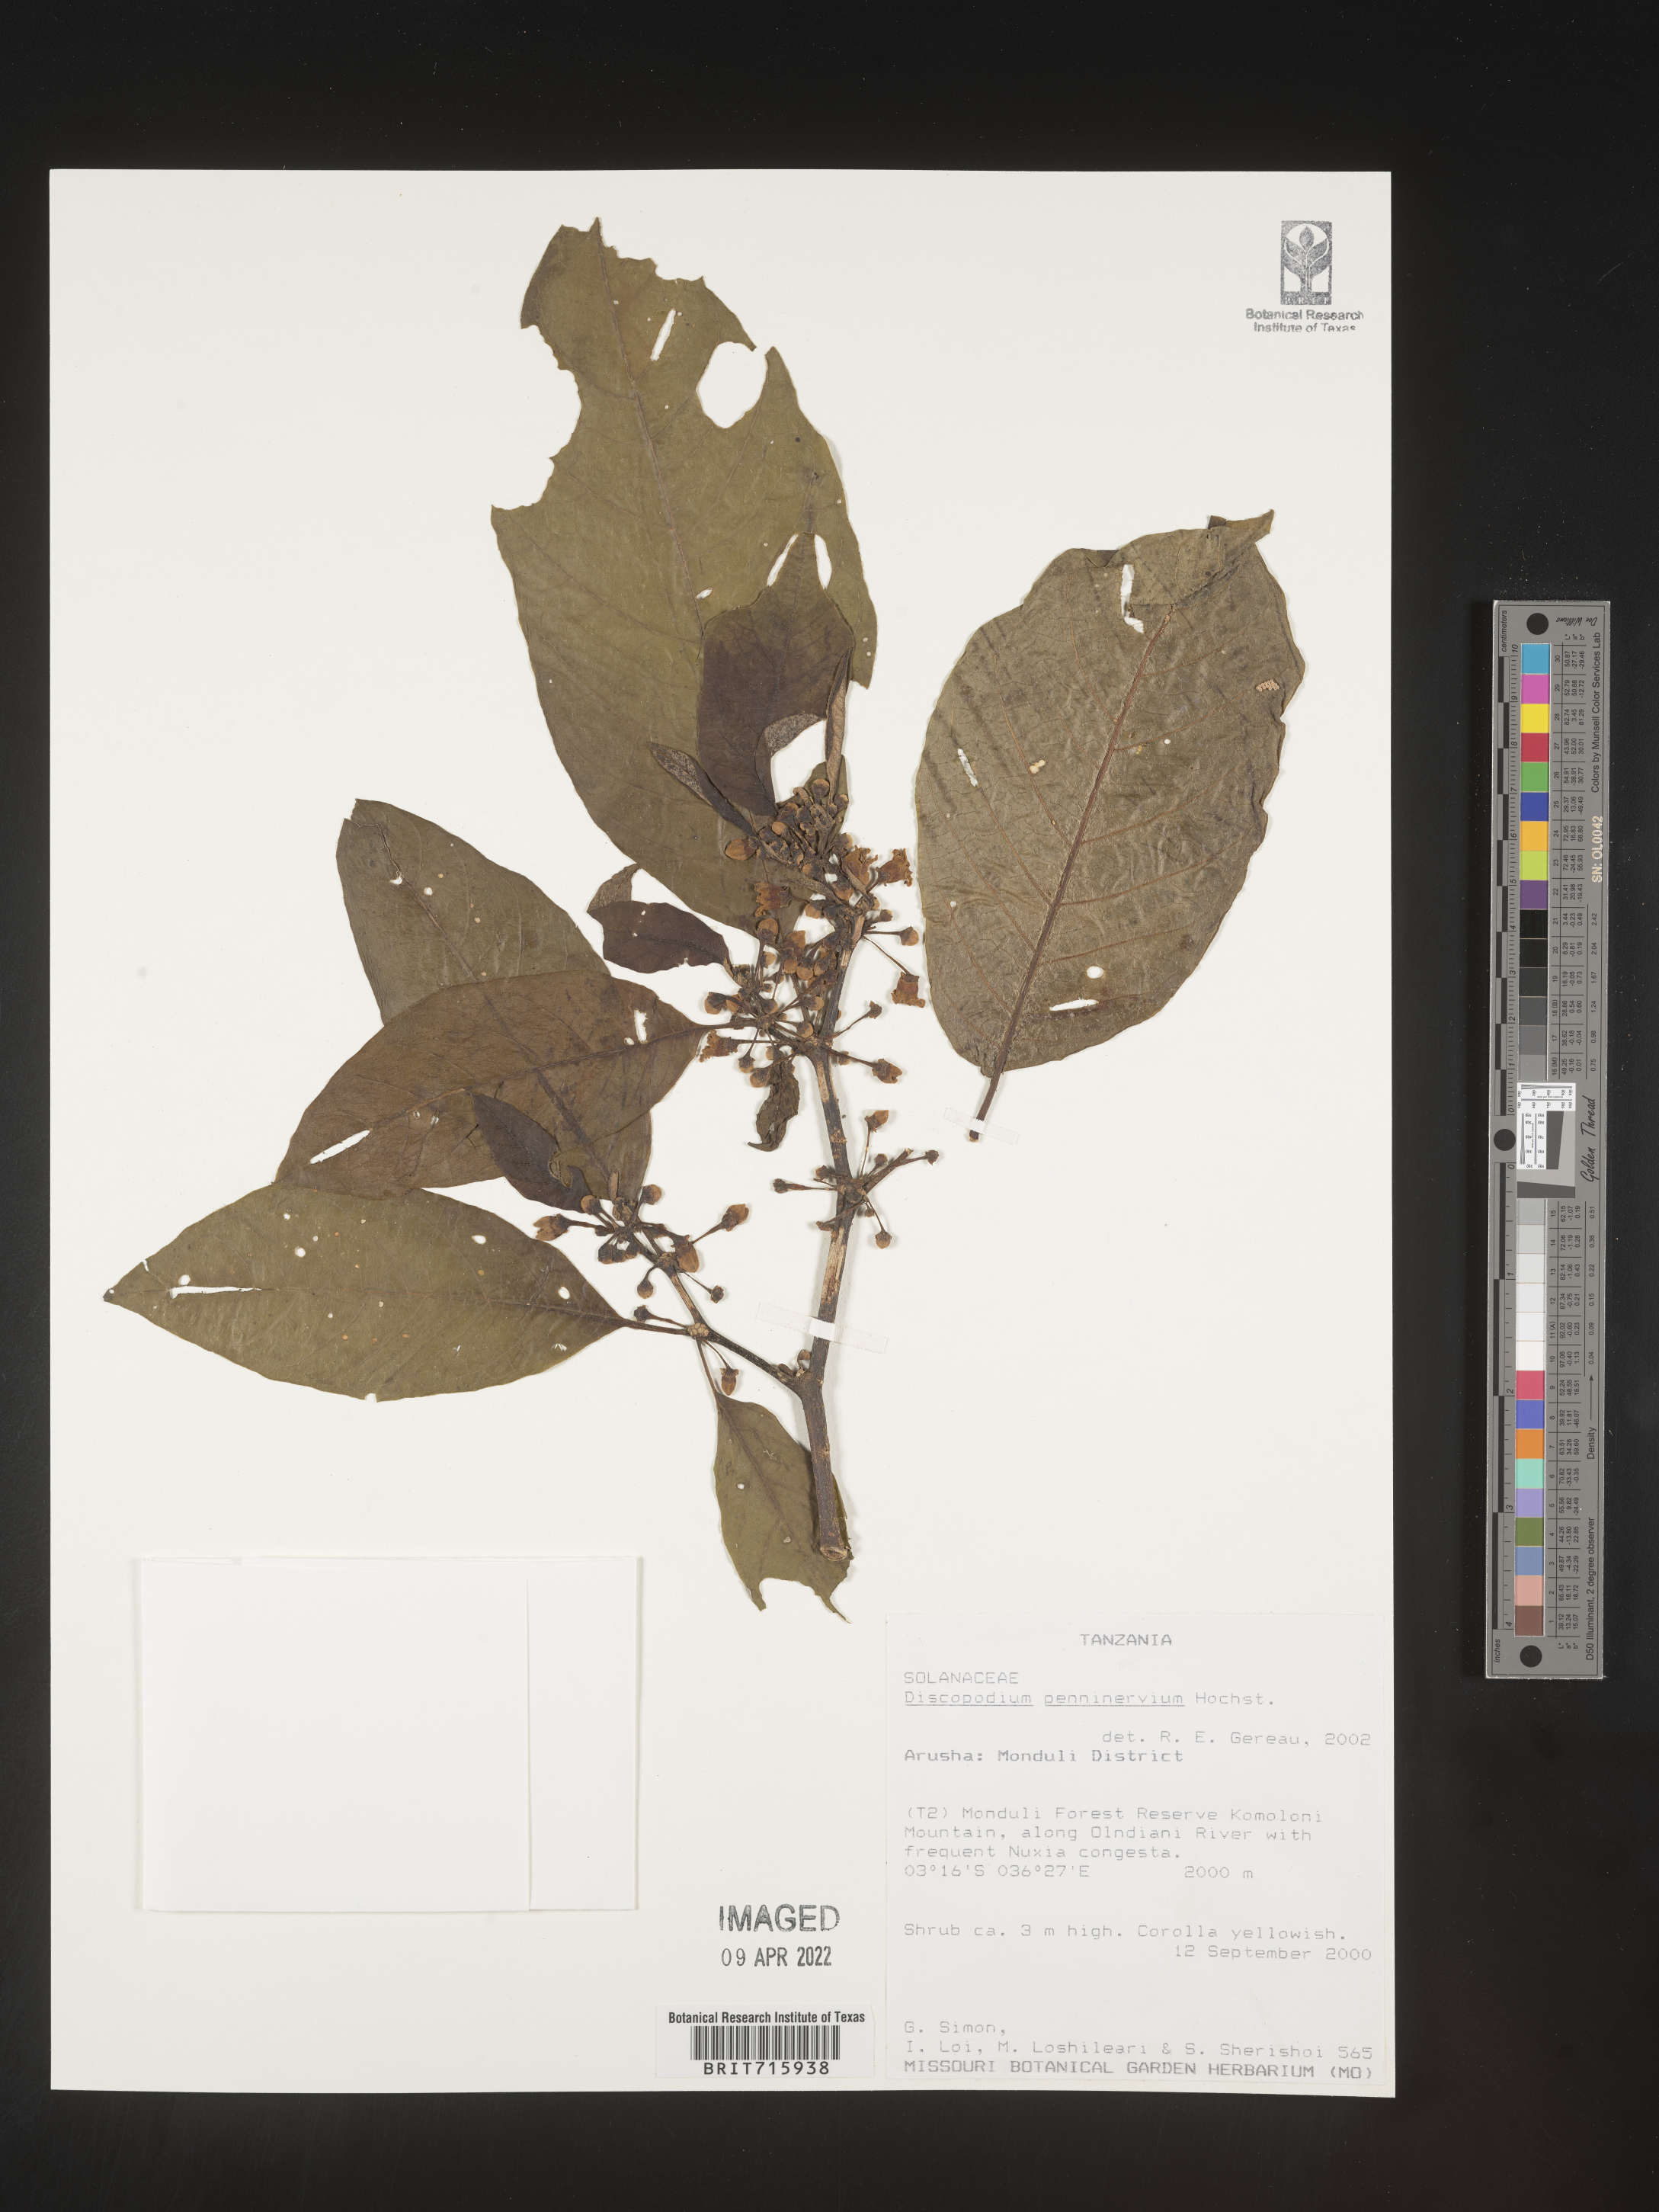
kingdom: Plantae
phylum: Tracheophyta
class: Magnoliopsida
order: Solanales
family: Solanaceae
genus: Discopodium
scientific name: Discopodium
